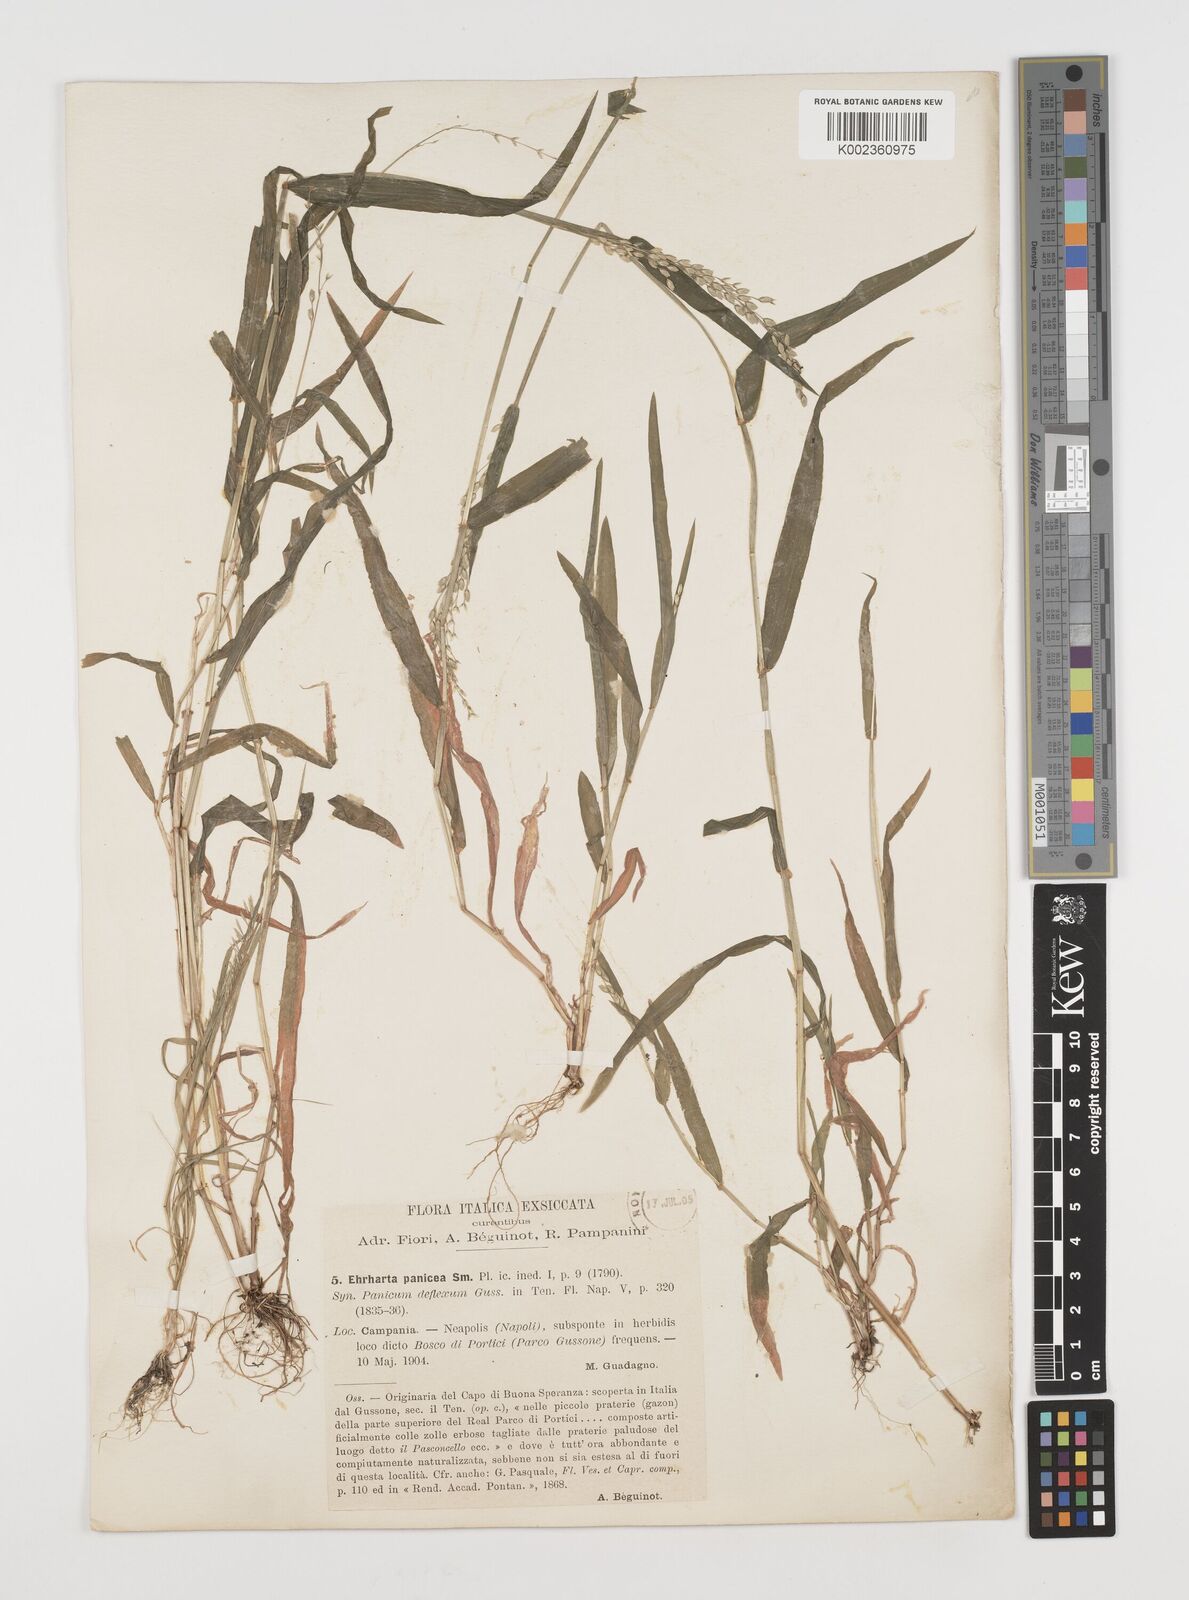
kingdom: Plantae
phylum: Tracheophyta
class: Liliopsida
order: Poales
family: Poaceae
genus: Ehrharta
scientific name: Ehrharta erecta
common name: Panic veldtgrass
